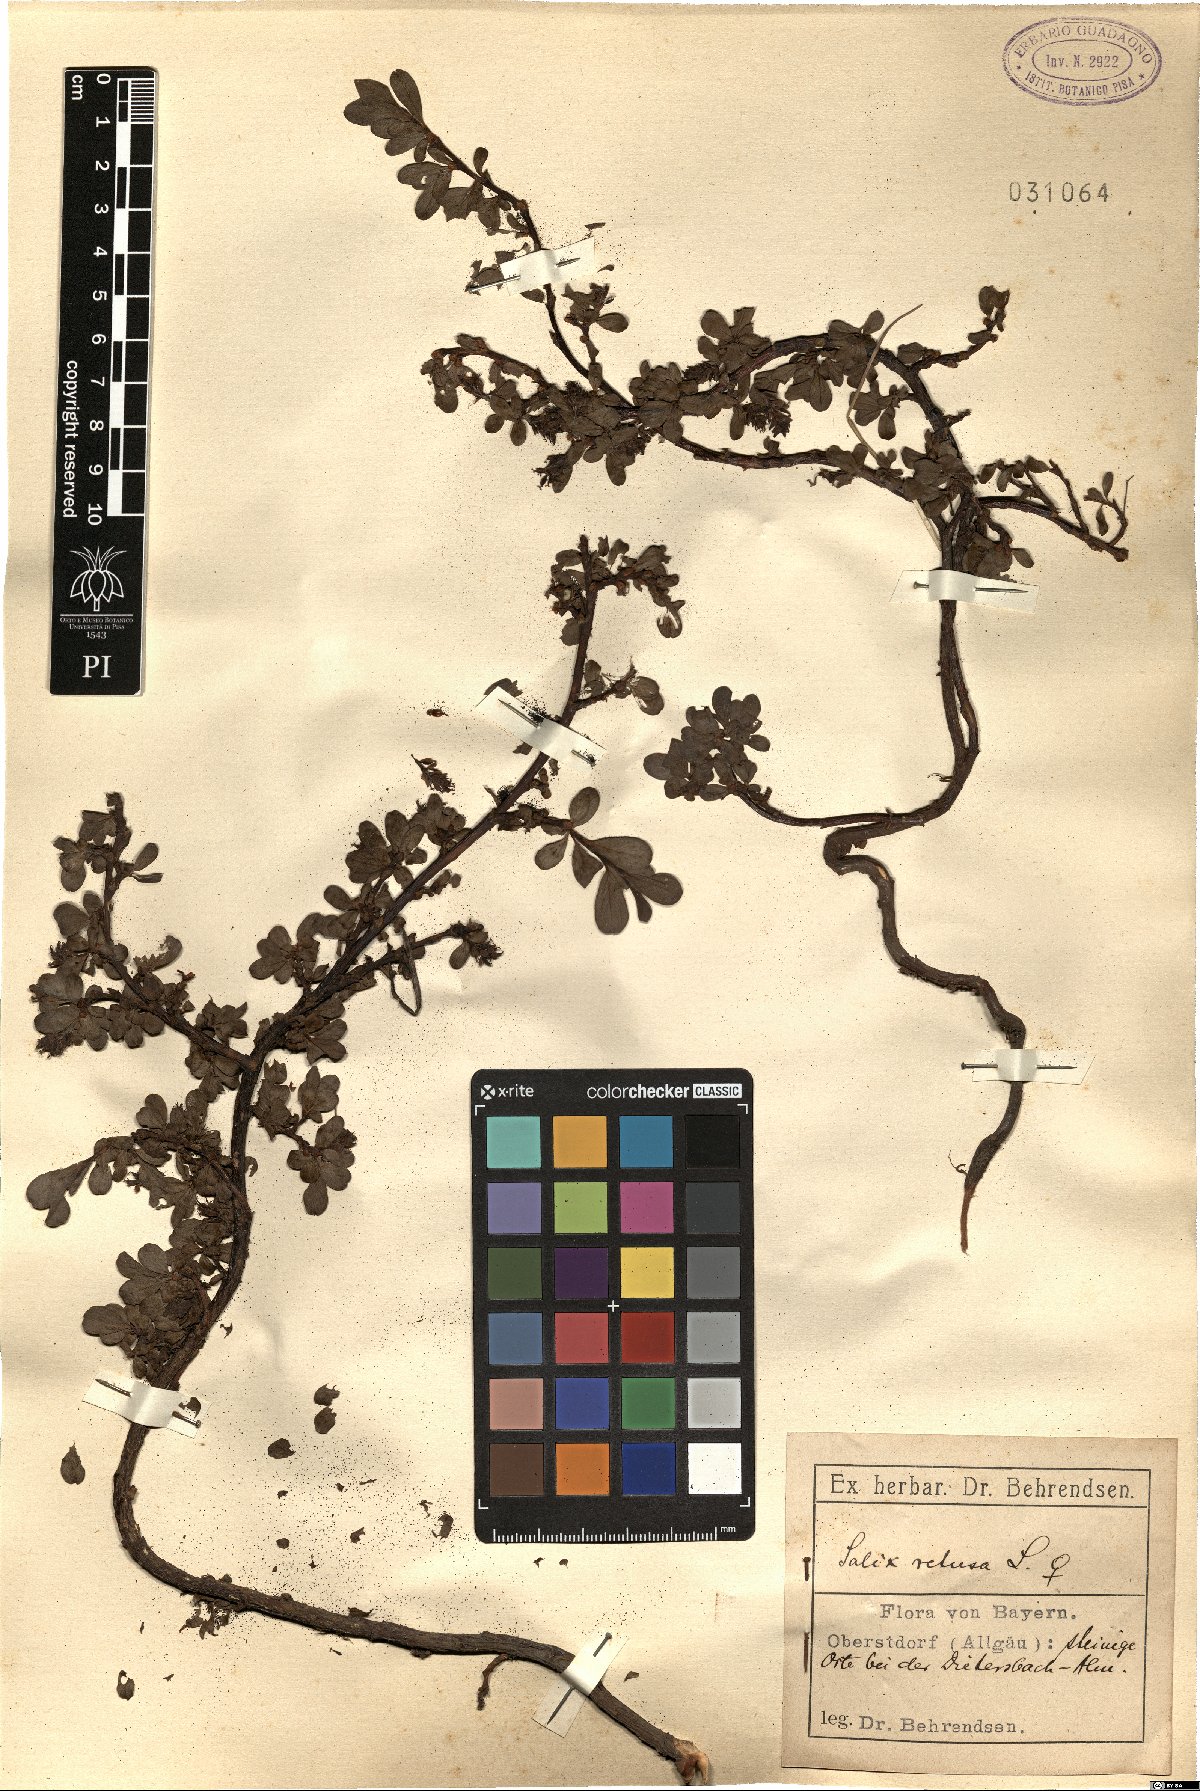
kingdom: Plantae
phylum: Tracheophyta
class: Magnoliopsida
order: Malpighiales
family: Salicaceae
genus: Salix
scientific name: Salix retusa
